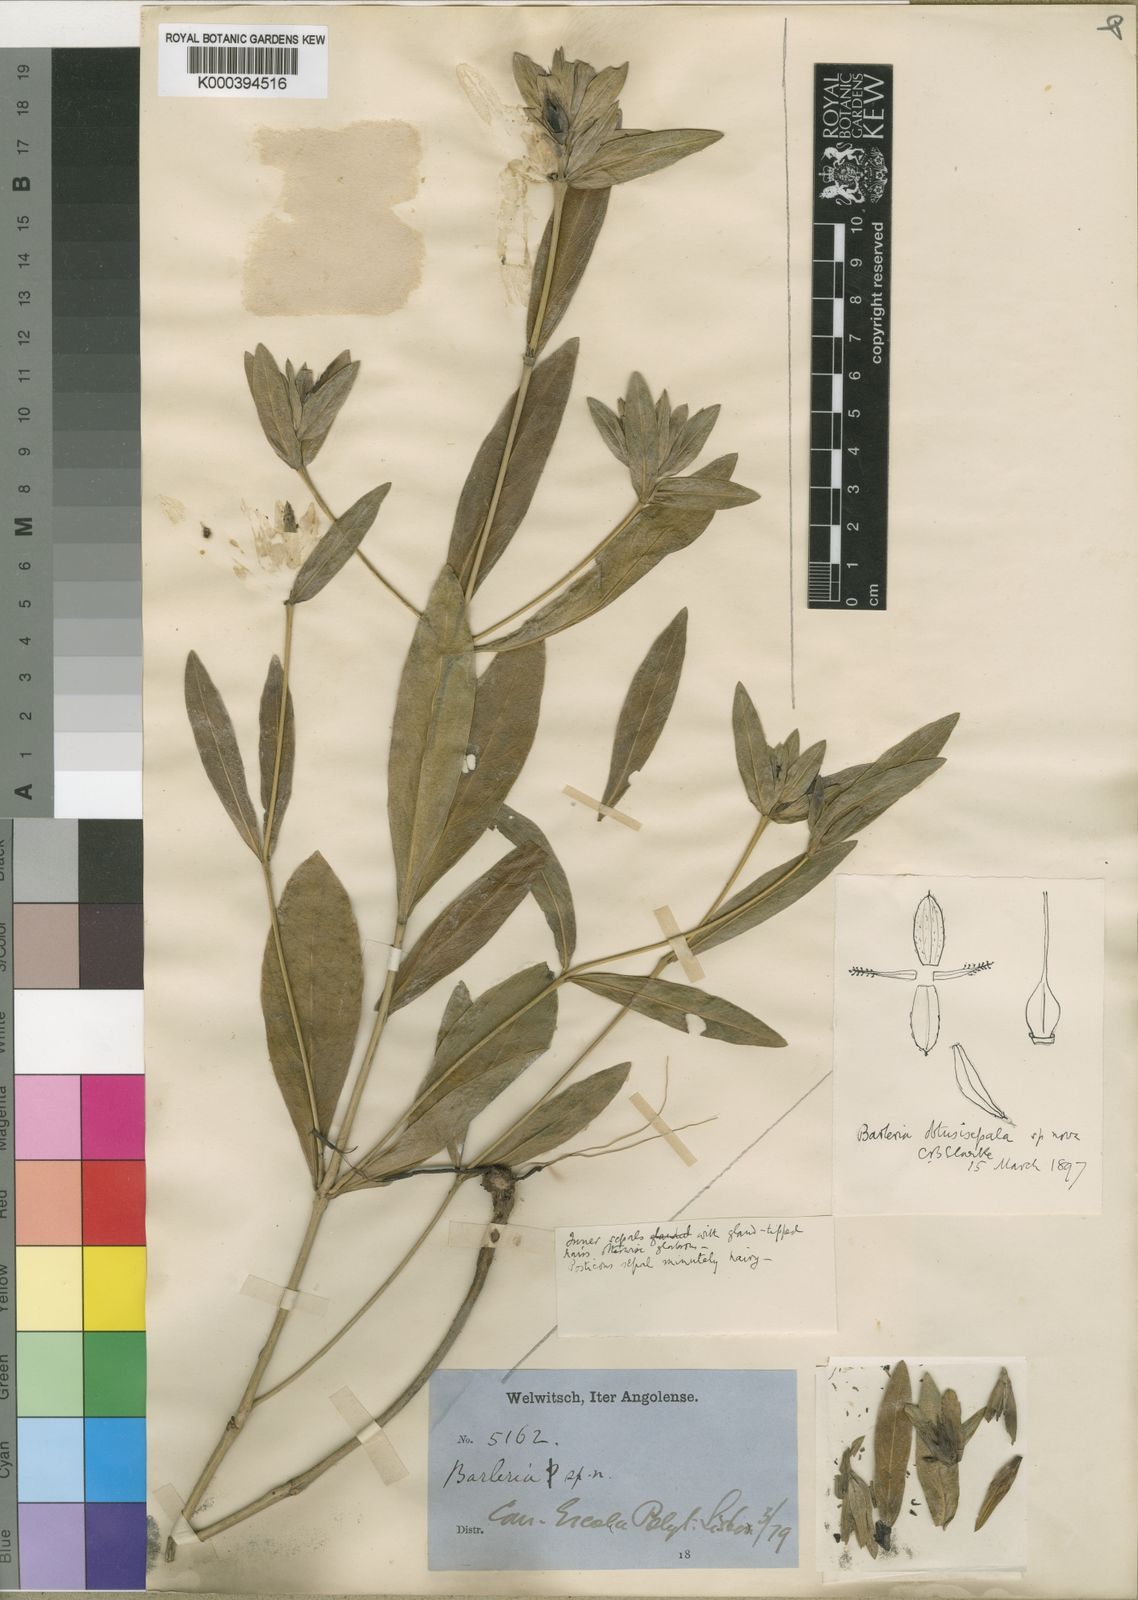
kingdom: Plantae
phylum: Tracheophyta
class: Magnoliopsida
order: Lamiales
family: Acanthaceae
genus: Barleria
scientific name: Barleria
